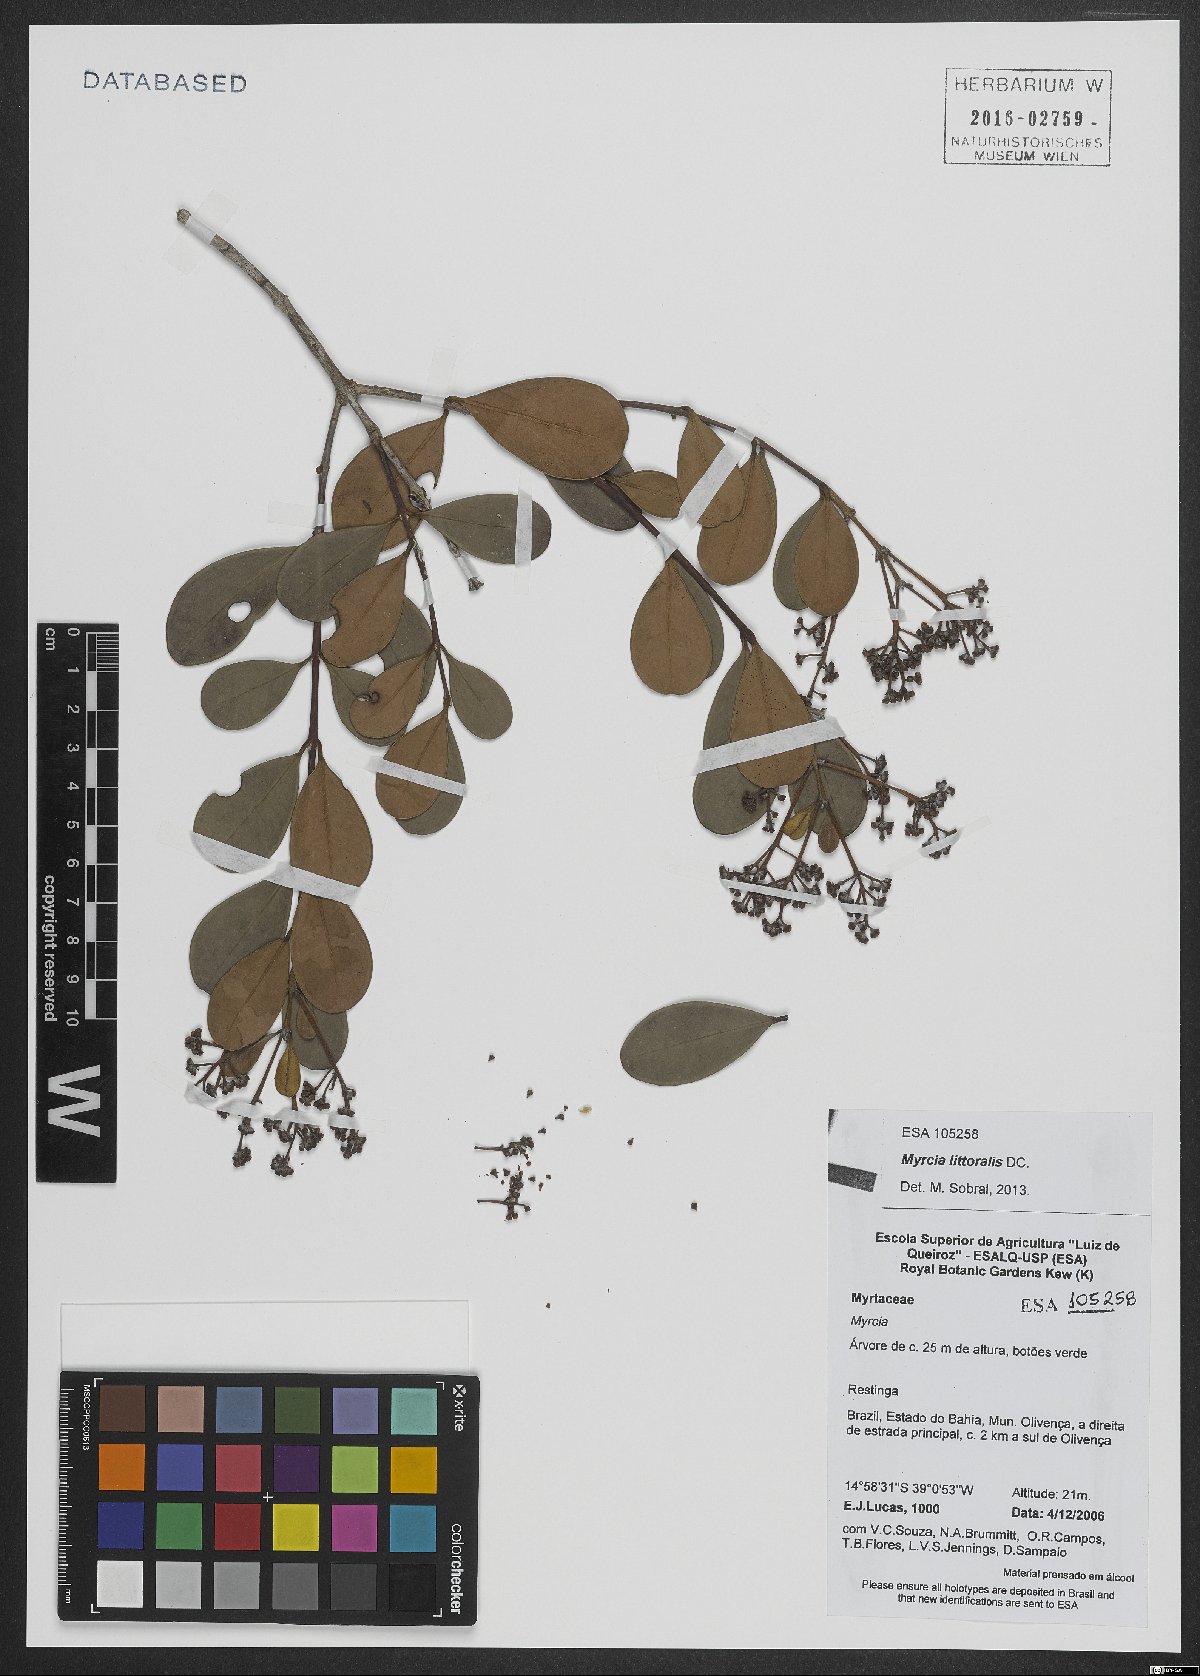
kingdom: Plantae
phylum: Tracheophyta
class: Magnoliopsida
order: Myrtales
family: Myrtaceae
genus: Myrcia
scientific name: Myrcia littoralis
